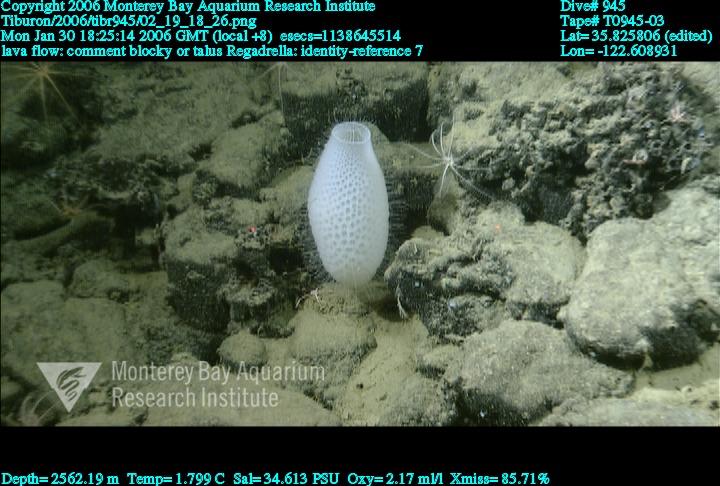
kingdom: Animalia
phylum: Porifera
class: Hexactinellida
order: Lyssacinosida
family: Euplectellidae
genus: Regadrella
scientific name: Regadrella
